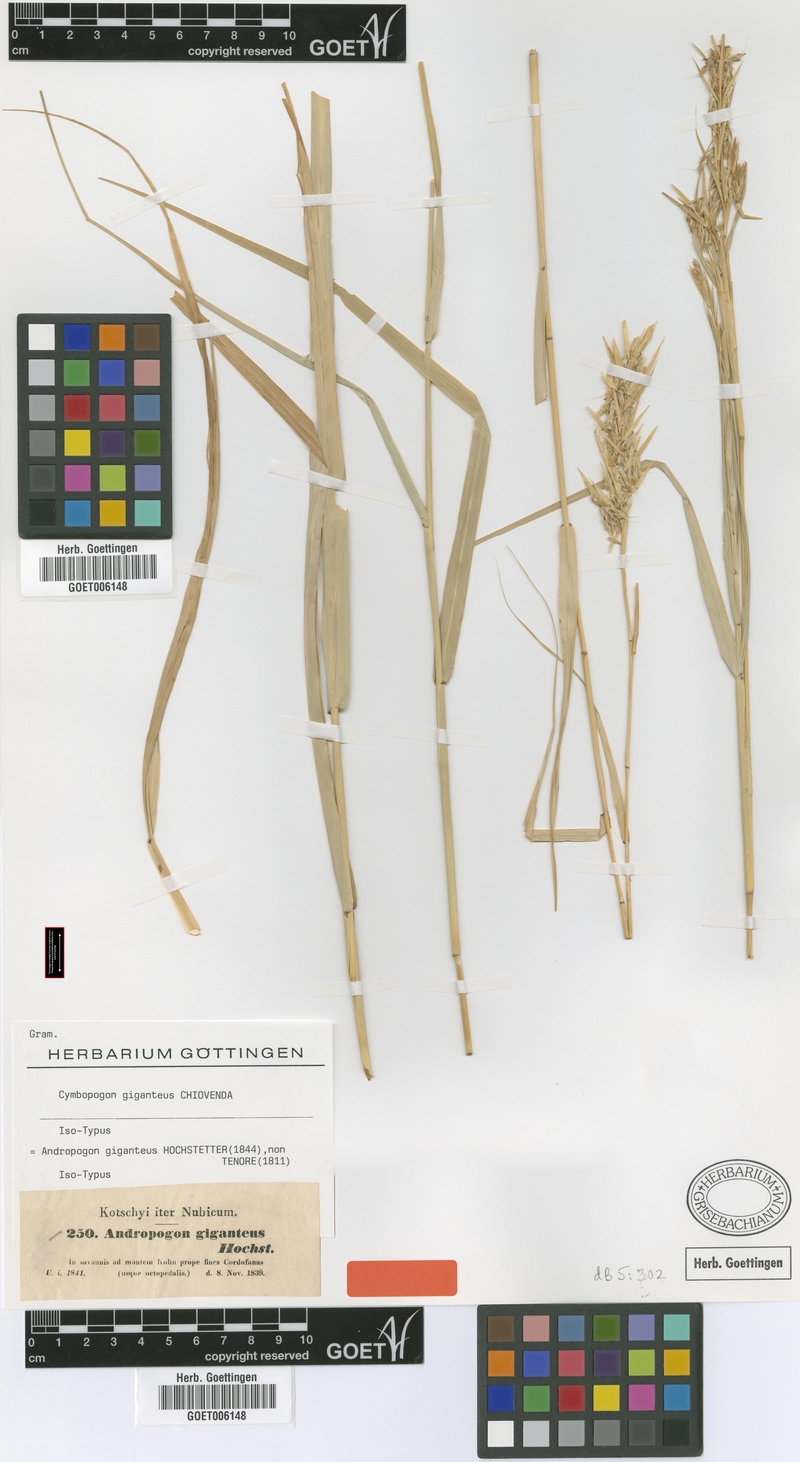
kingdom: Plantae
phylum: Tracheophyta
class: Liliopsida
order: Poales
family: Poaceae
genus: Cymbopogon
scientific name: Cymbopogon giganteus
